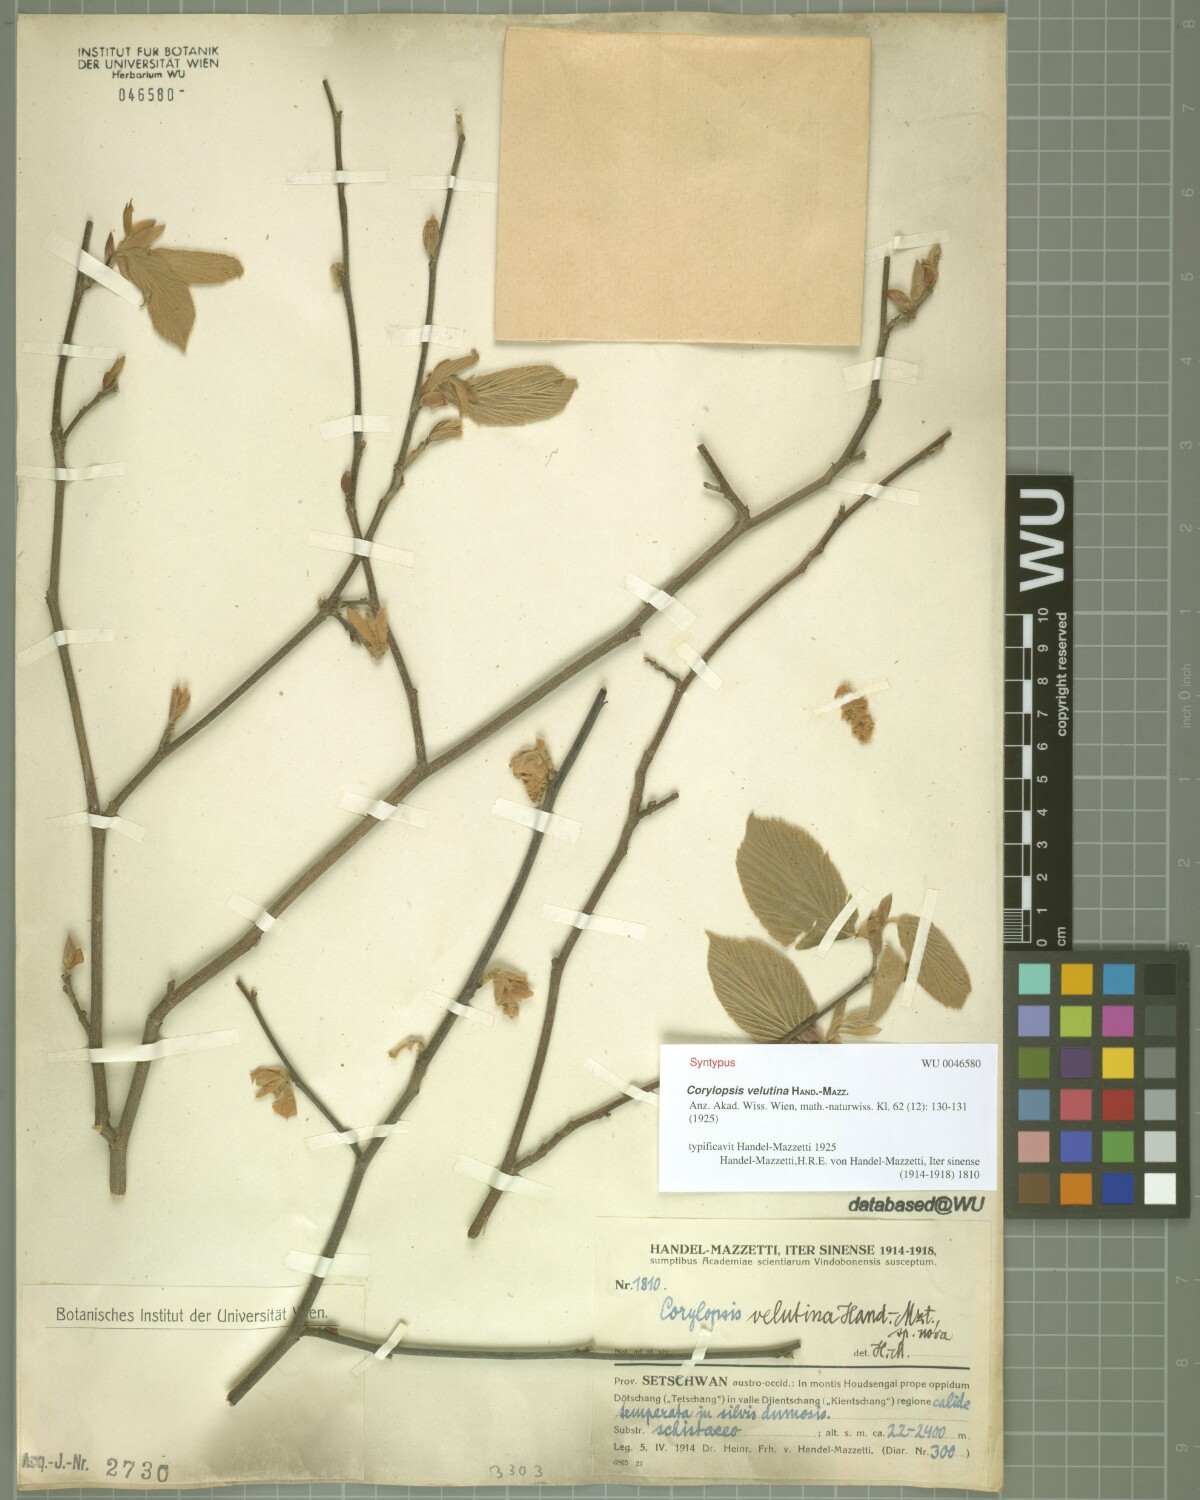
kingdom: Plantae
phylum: Tracheophyta
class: Magnoliopsida
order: Saxifragales
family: Hamamelidaceae
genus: Corylopsis
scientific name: Corylopsis velutina
